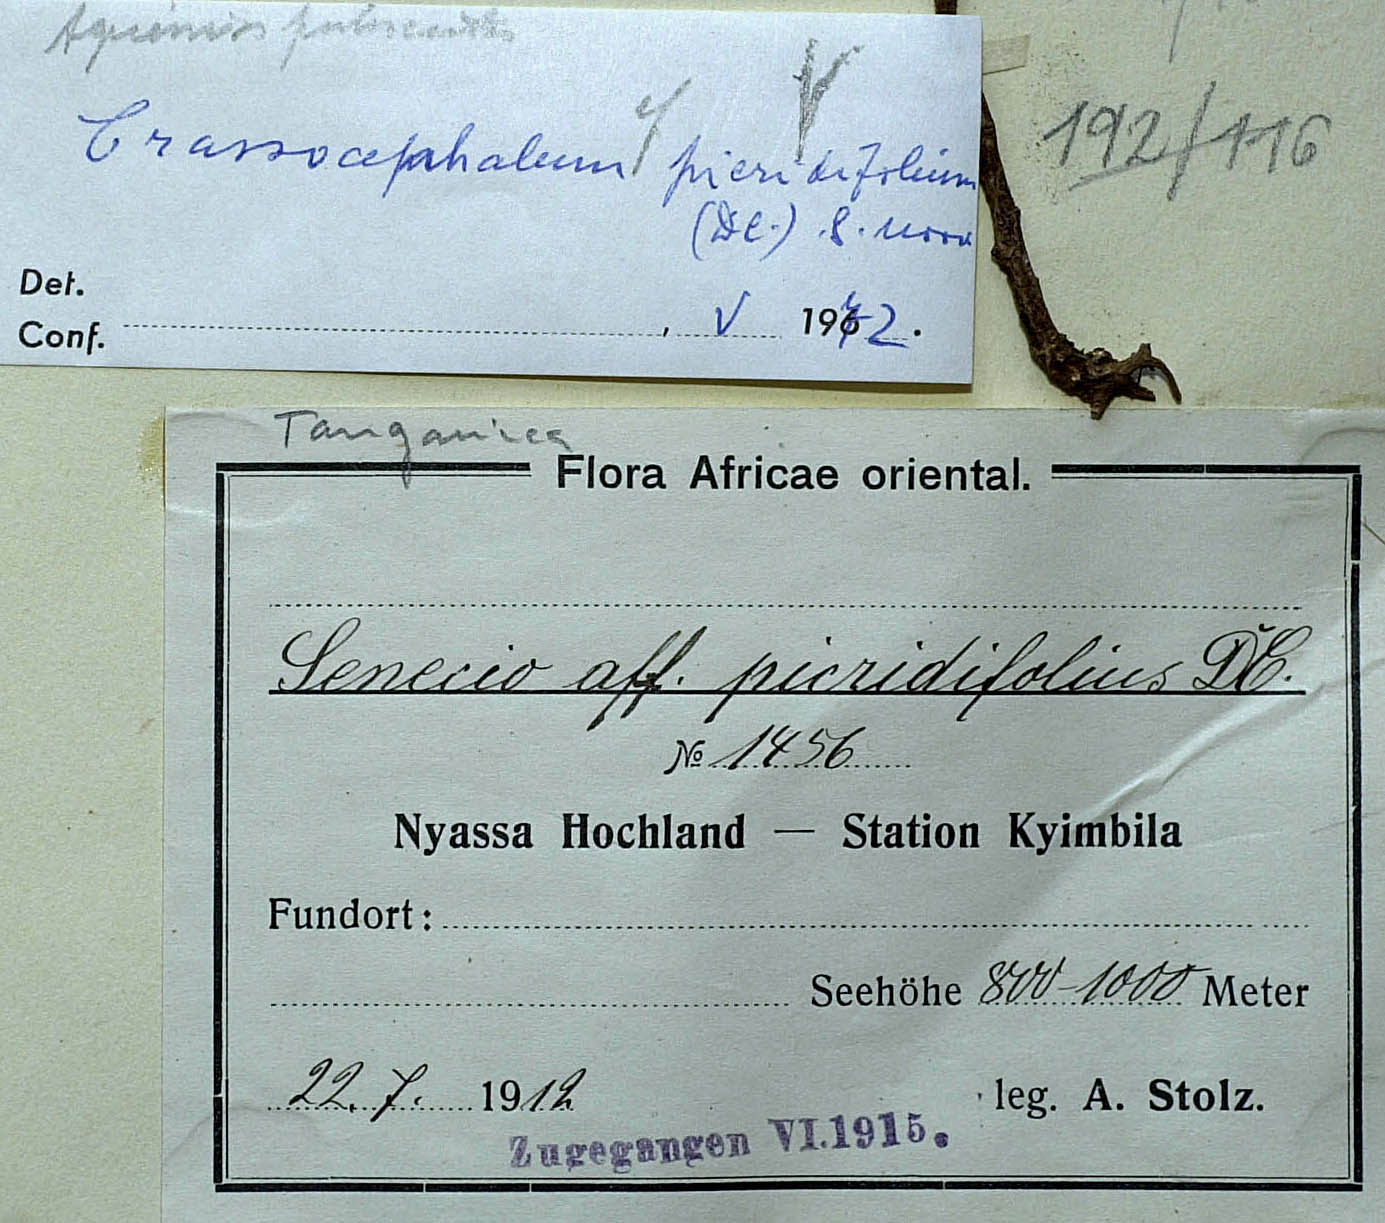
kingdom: Plantae
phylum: Tracheophyta
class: Magnoliopsida
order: Asterales
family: Asteraceae
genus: Crassocephalum
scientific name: Crassocephalum effusum
